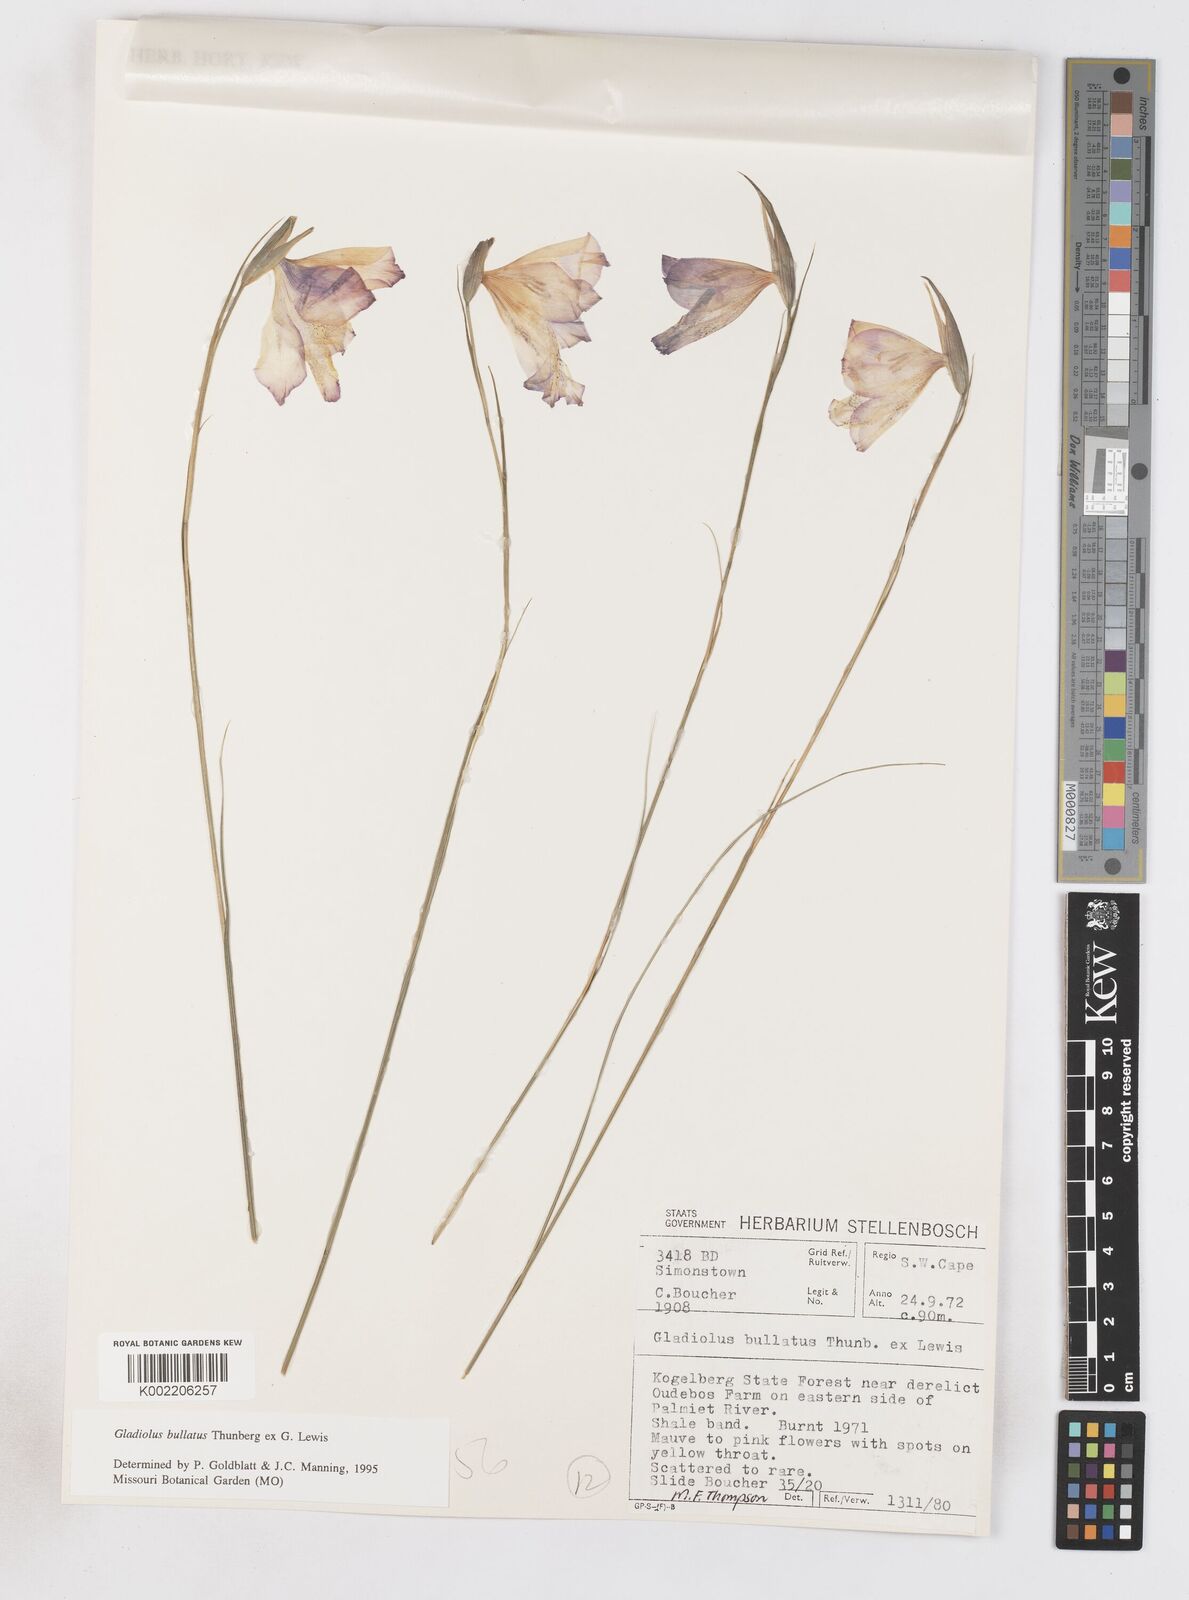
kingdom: Plantae
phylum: Tracheophyta
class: Liliopsida
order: Asparagales
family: Iridaceae
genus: Gladiolus
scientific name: Gladiolus bullatus
